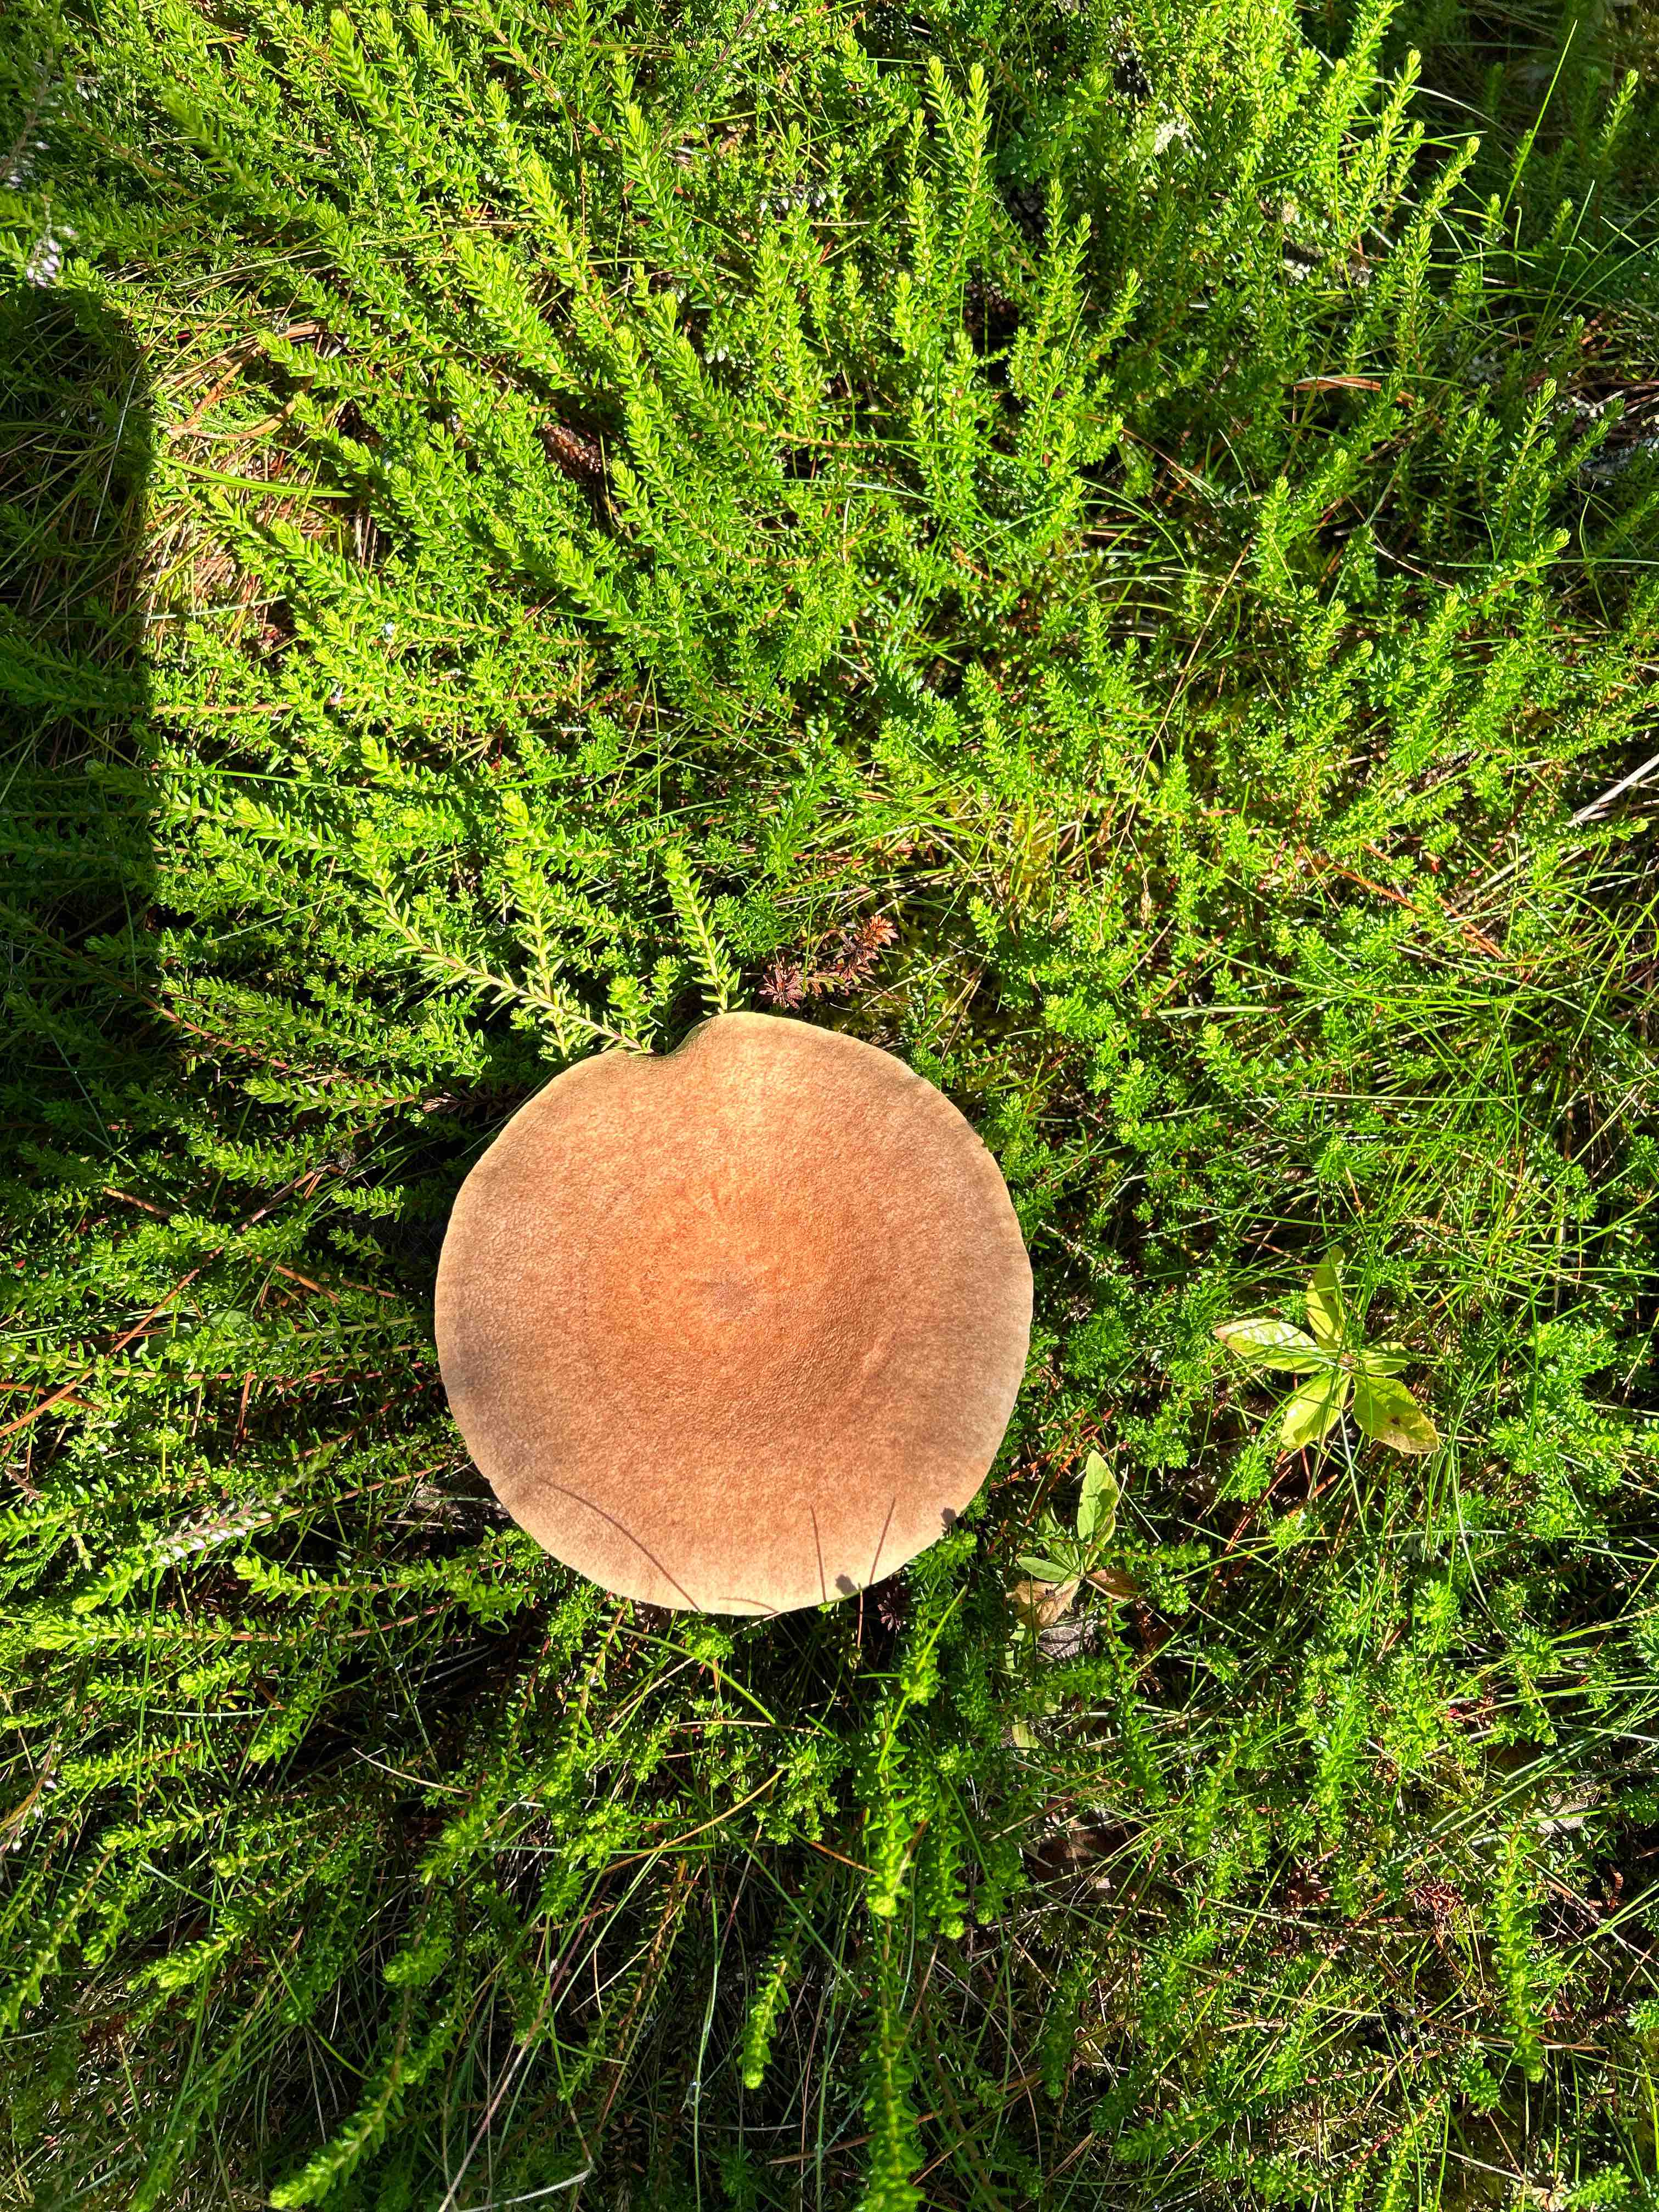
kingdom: Fungi
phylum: Basidiomycota
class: Agaricomycetes
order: Russulales
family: Russulaceae
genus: Lactarius
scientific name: Lactarius helvus
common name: mose-mælkehat
